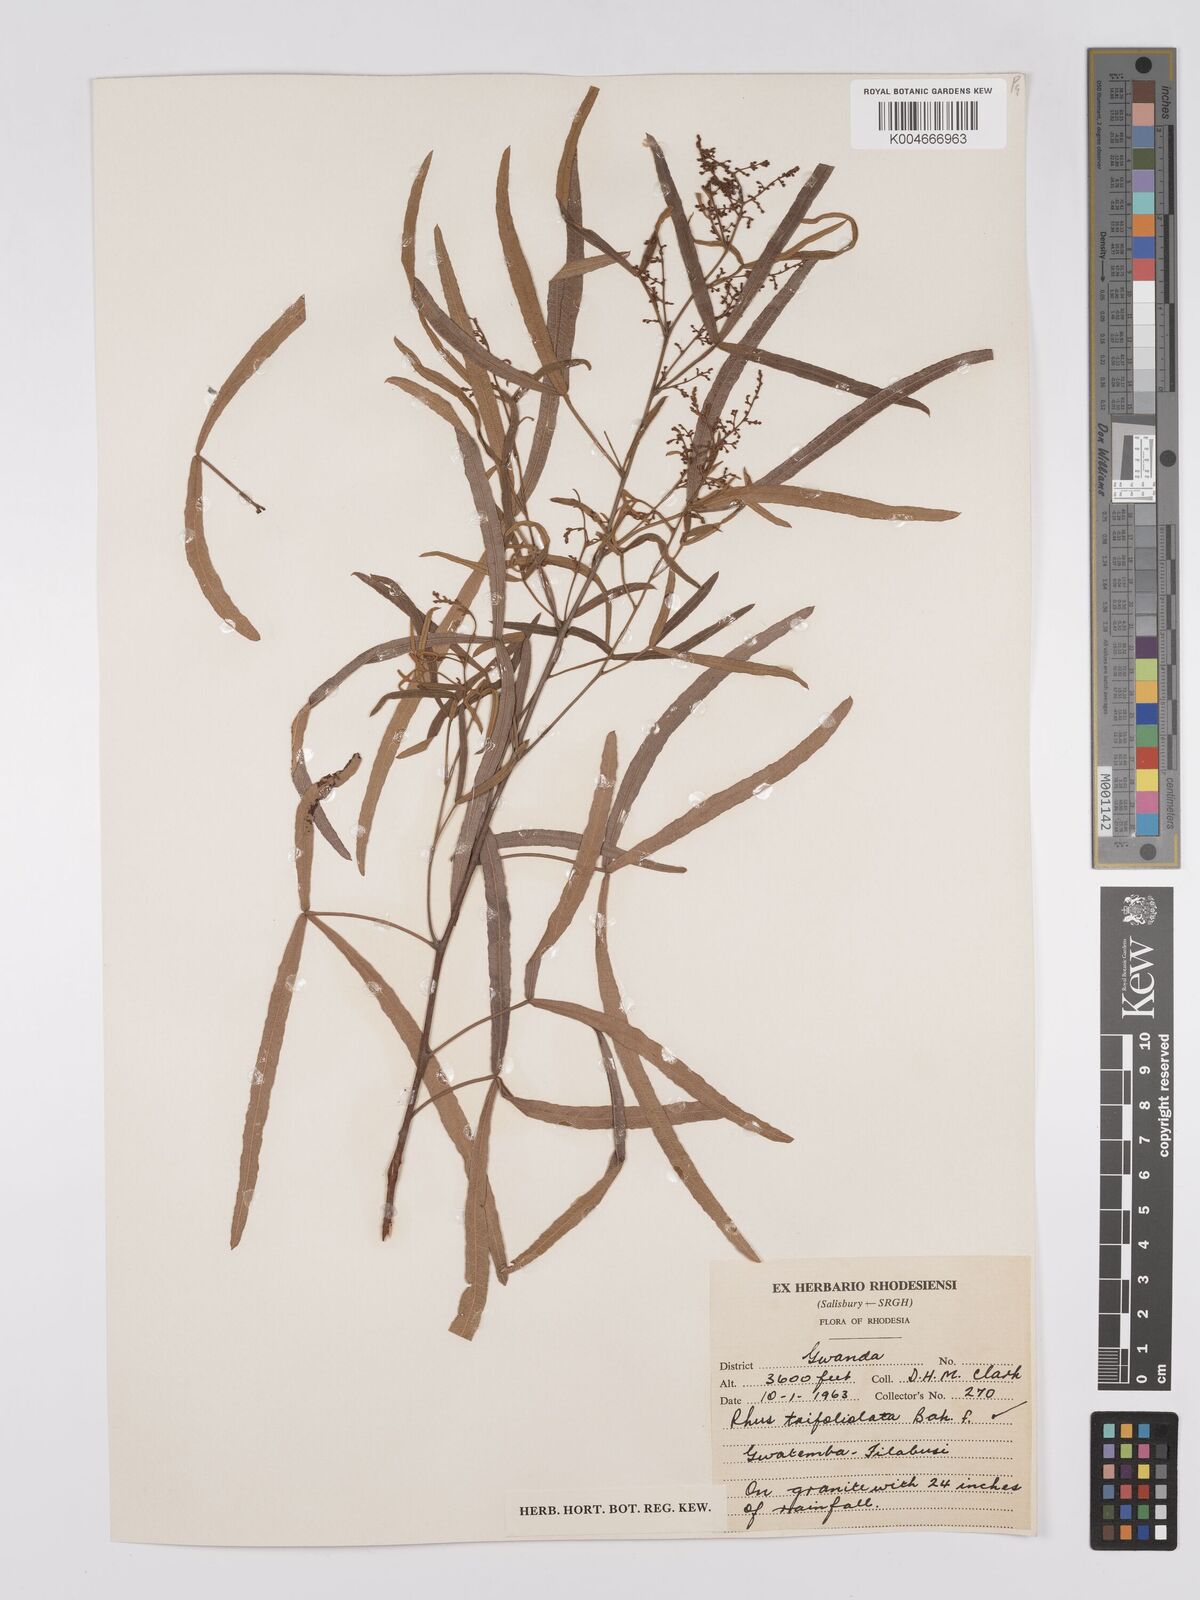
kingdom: Plantae
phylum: Tracheophyta
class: Magnoliopsida
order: Sapindales
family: Anacardiaceae
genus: Searsia
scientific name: Searsia magalismontana
